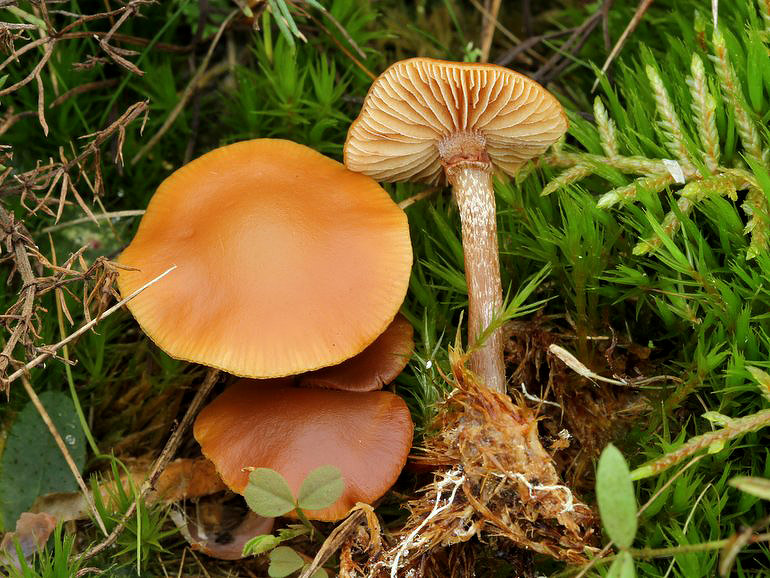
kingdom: Fungi
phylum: Basidiomycota
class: Agaricomycetes
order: Agaricales
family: Hymenogastraceae
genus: Galerina
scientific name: Galerina marginata
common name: randbæltet hjelmhat
